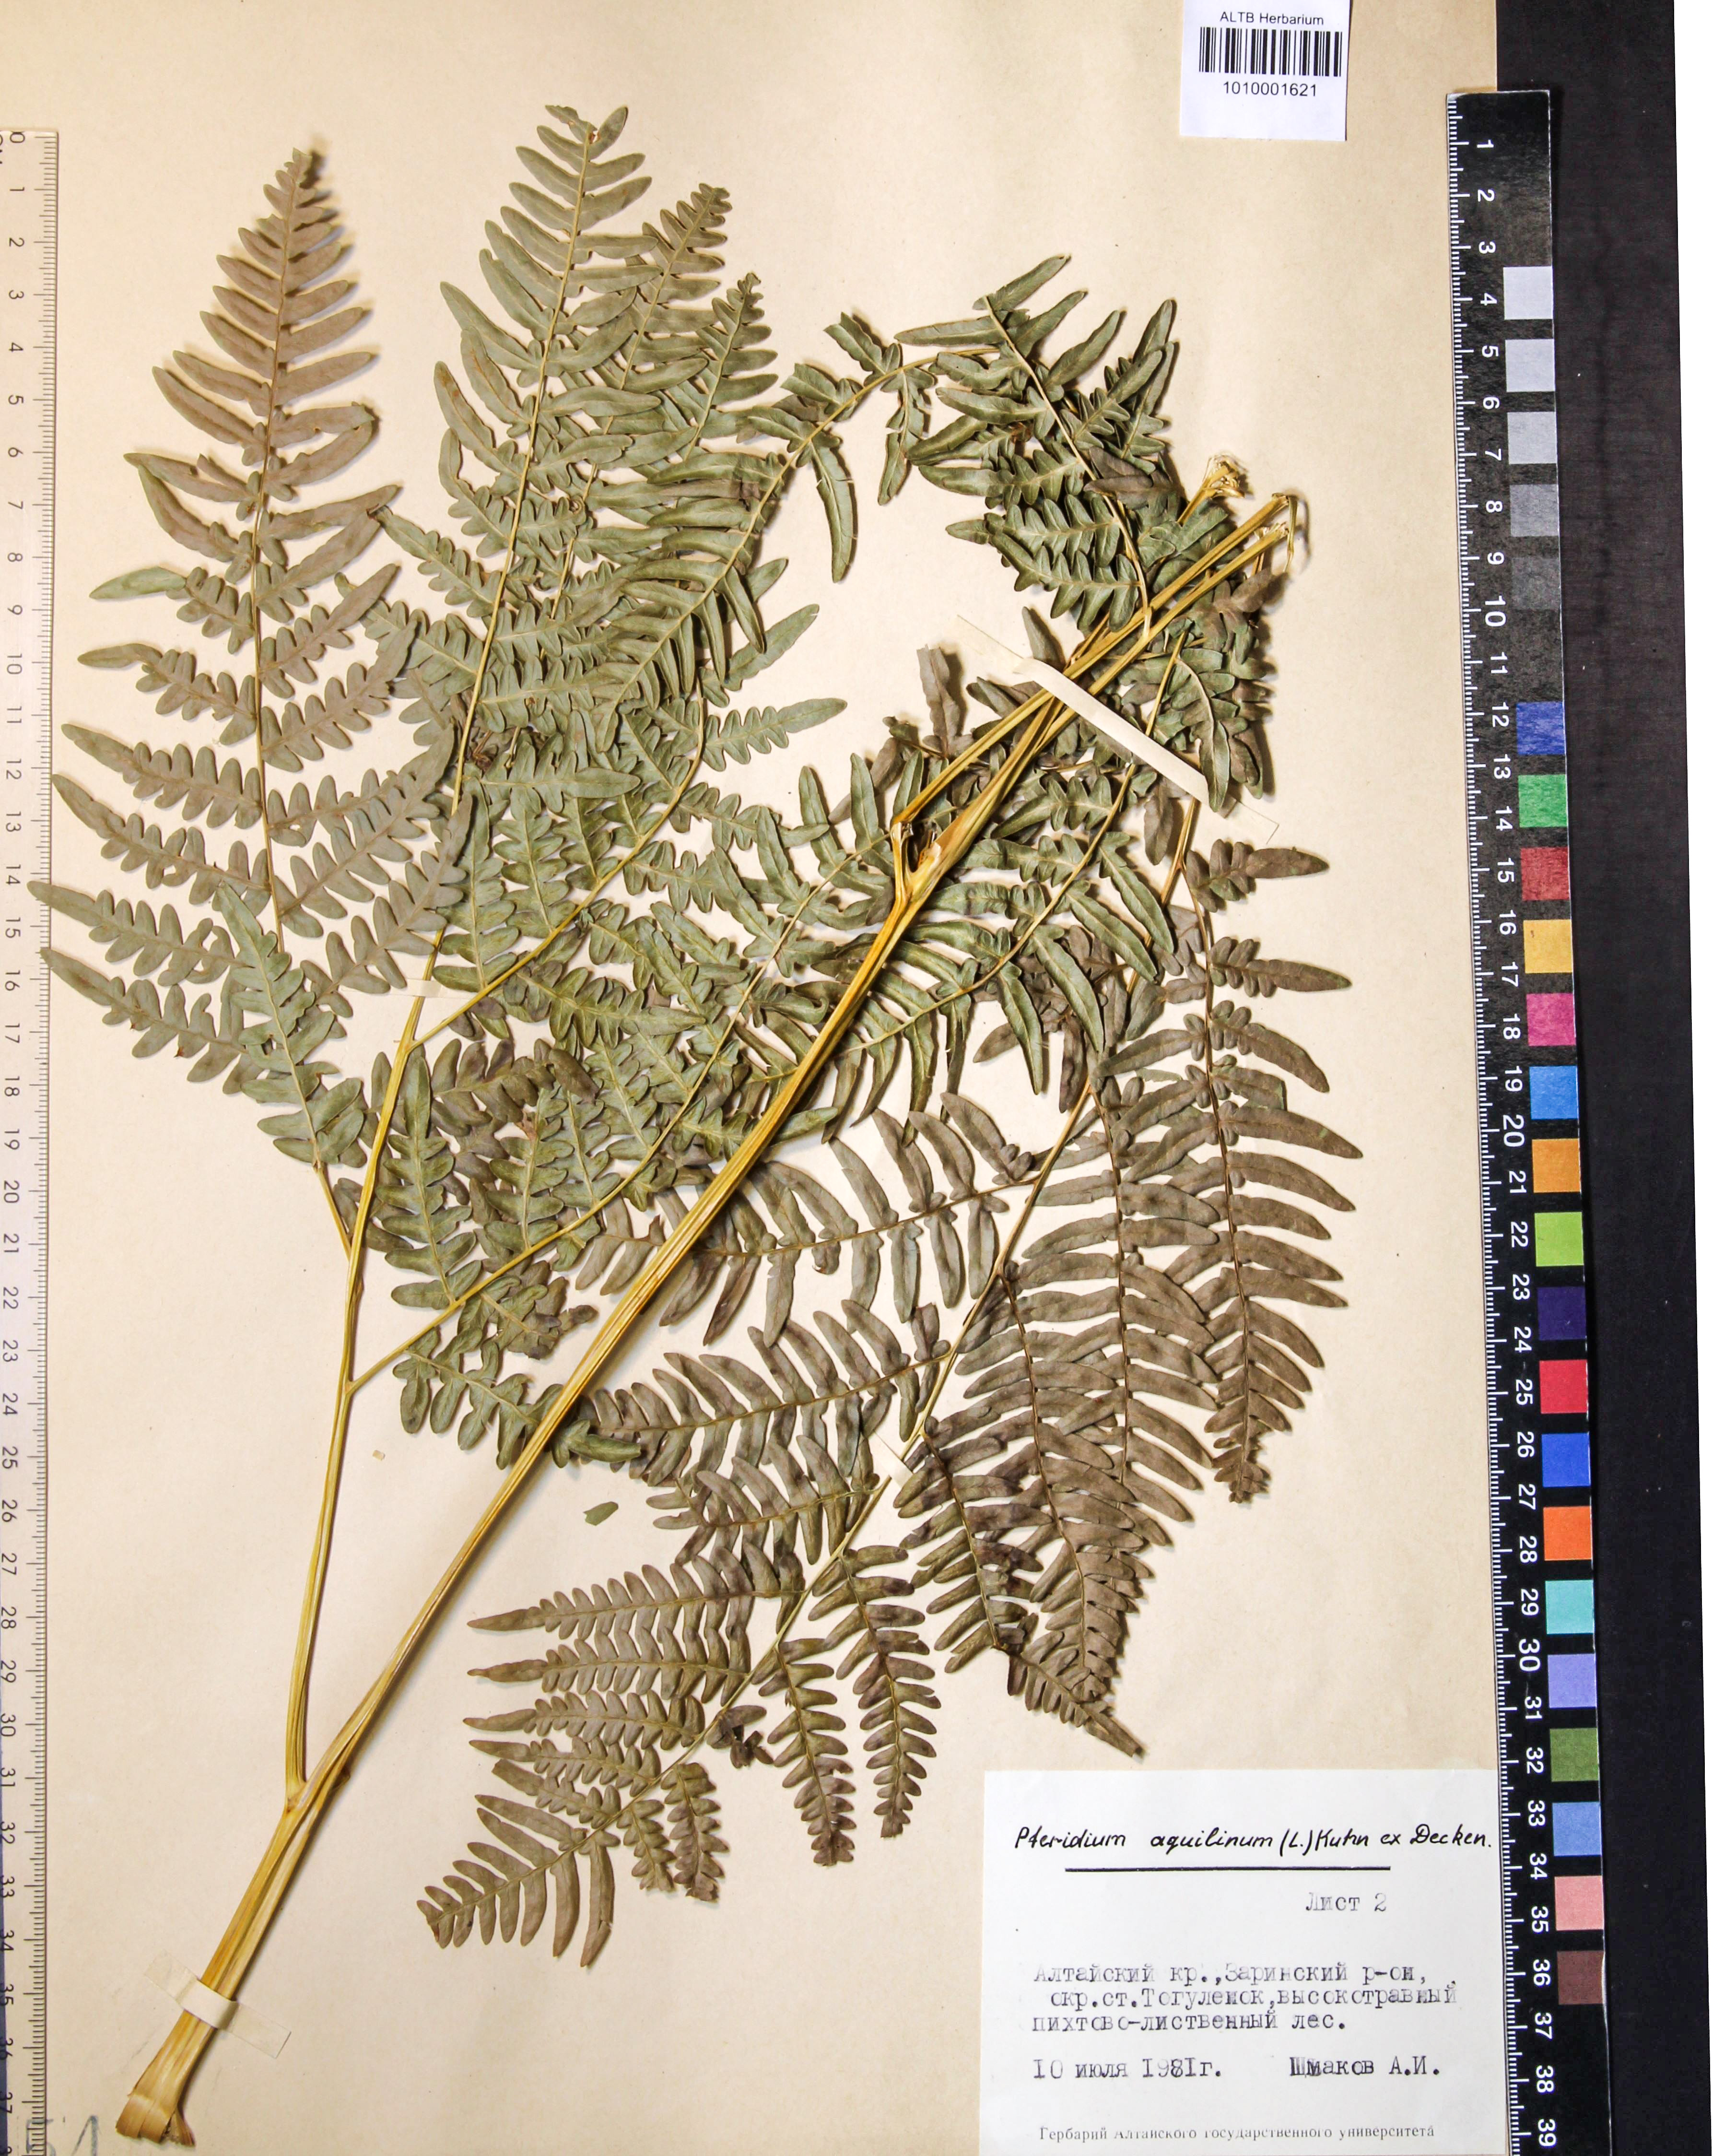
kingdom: Plantae
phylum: Tracheophyta
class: Polypodiopsida
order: Polypodiales
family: Dennstaedtiaceae
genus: Pteridium
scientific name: Pteridium aquilinum
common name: Bracken
